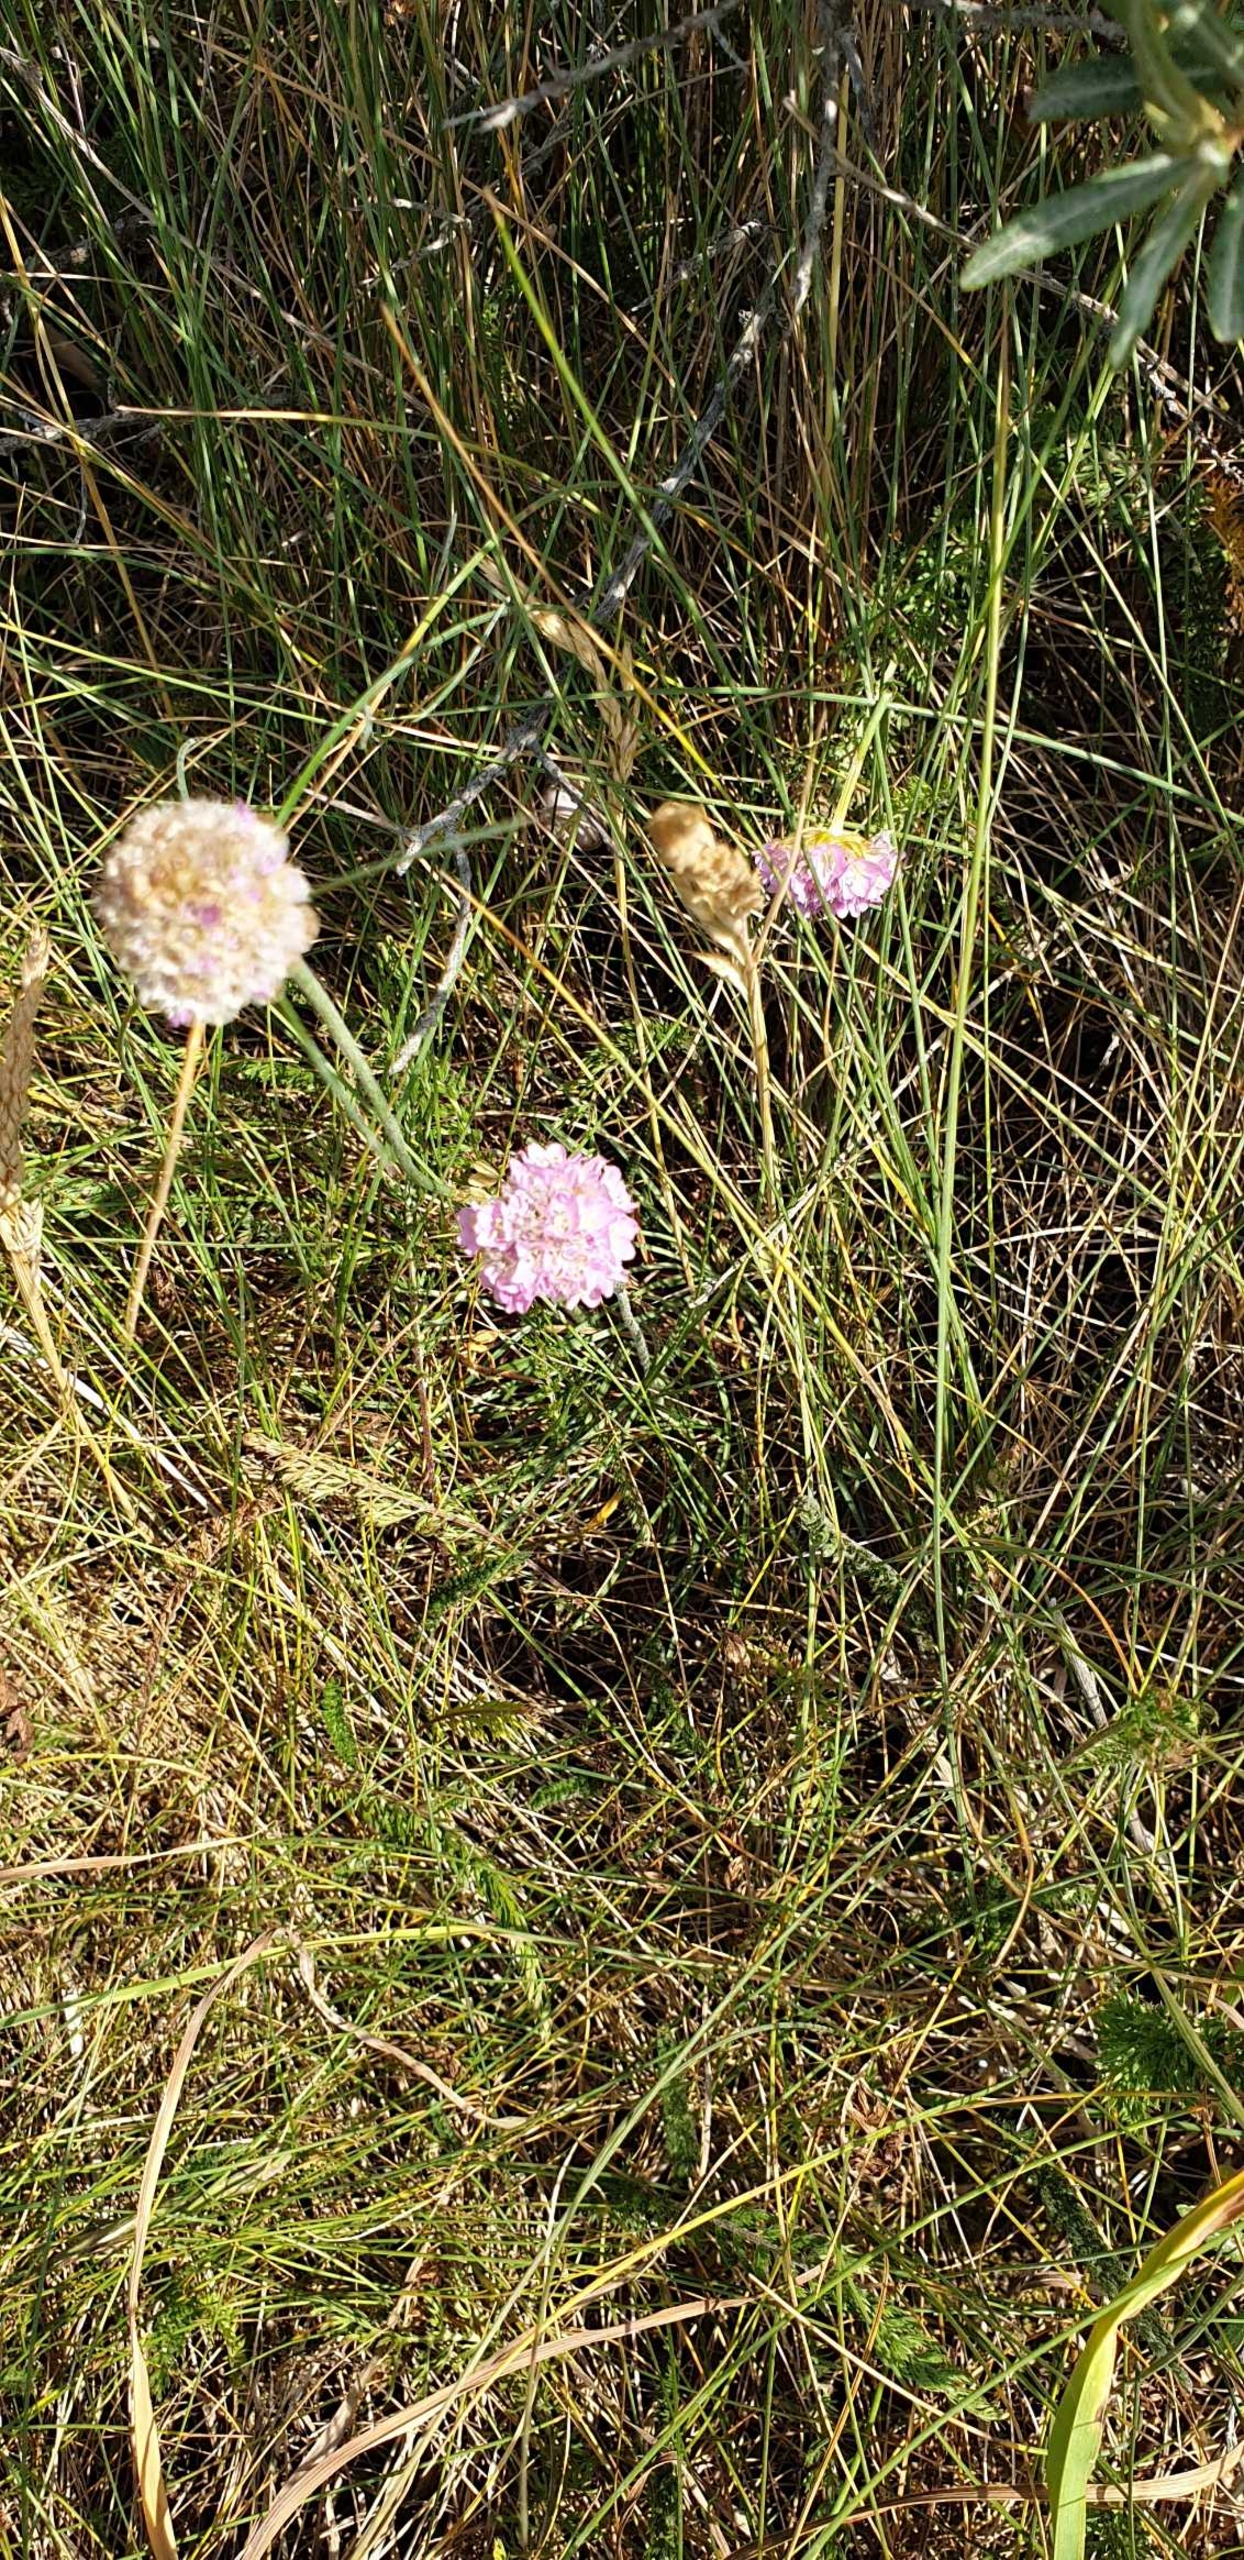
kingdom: Plantae
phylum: Tracheophyta
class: Magnoliopsida
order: Caryophyllales
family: Plumbaginaceae
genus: Armeria
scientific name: Armeria maritima
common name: Engelskgræs
